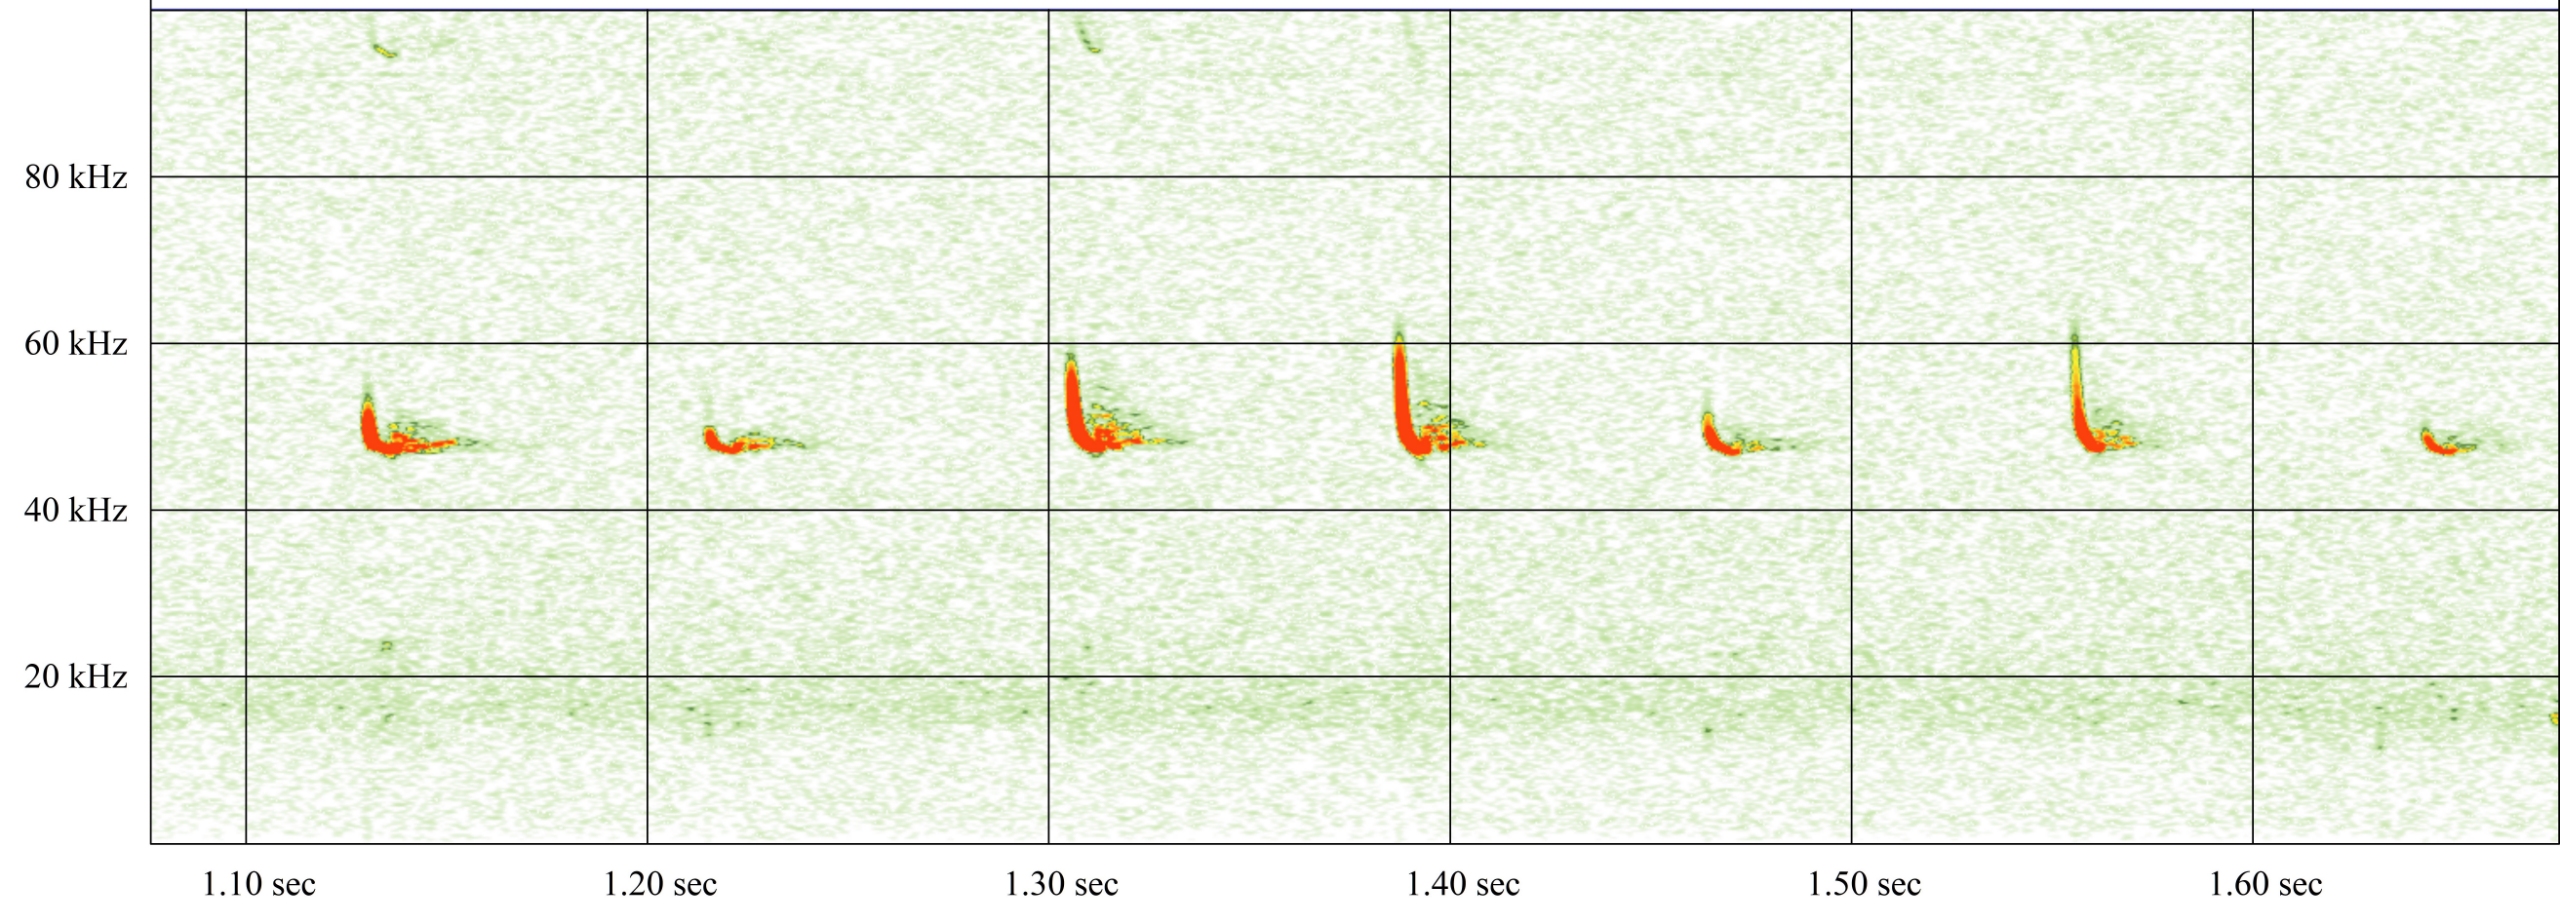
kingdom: Animalia
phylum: Chordata
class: Mammalia
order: Chiroptera
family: Vespertilionidae
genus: Pipistrellus
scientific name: Pipistrellus pipistrellus
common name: Pipistrelflagermus
